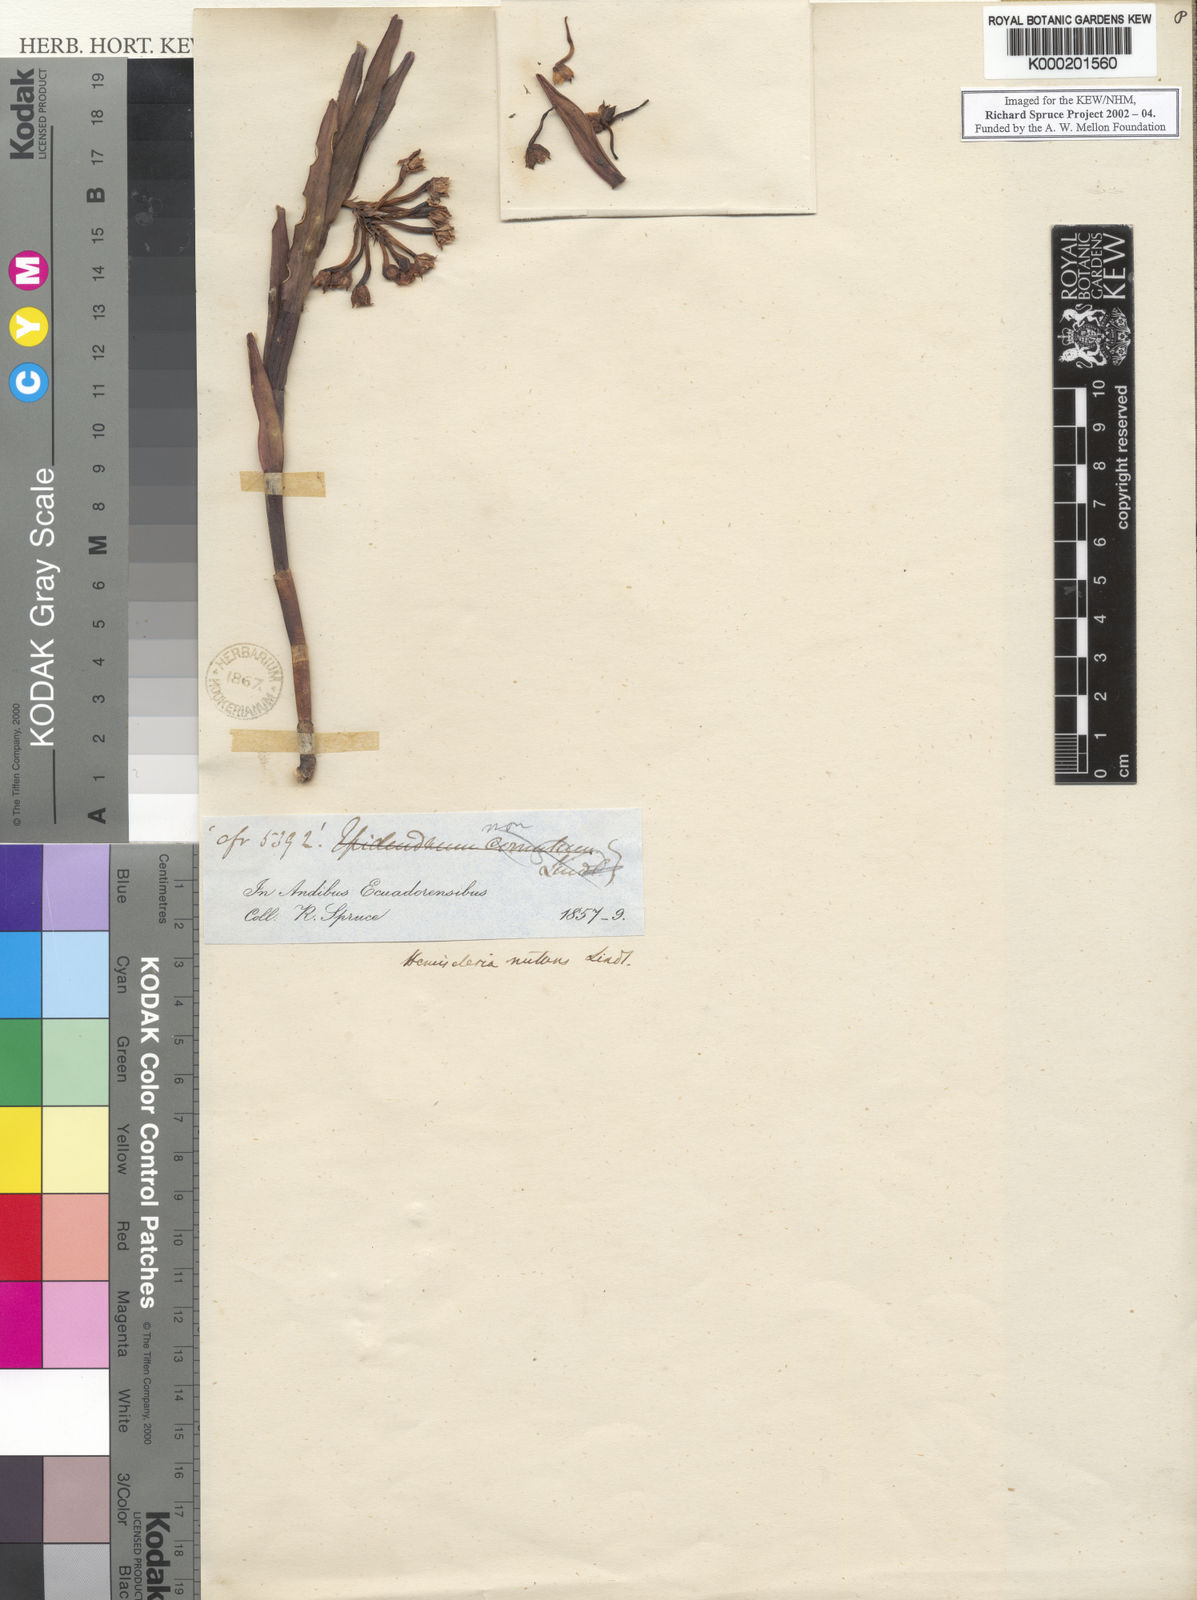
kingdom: Plantae
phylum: Tracheophyta
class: Liliopsida
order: Asparagales
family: Orchidaceae
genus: Epidendrum
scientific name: Epidendrum hemiscleria
